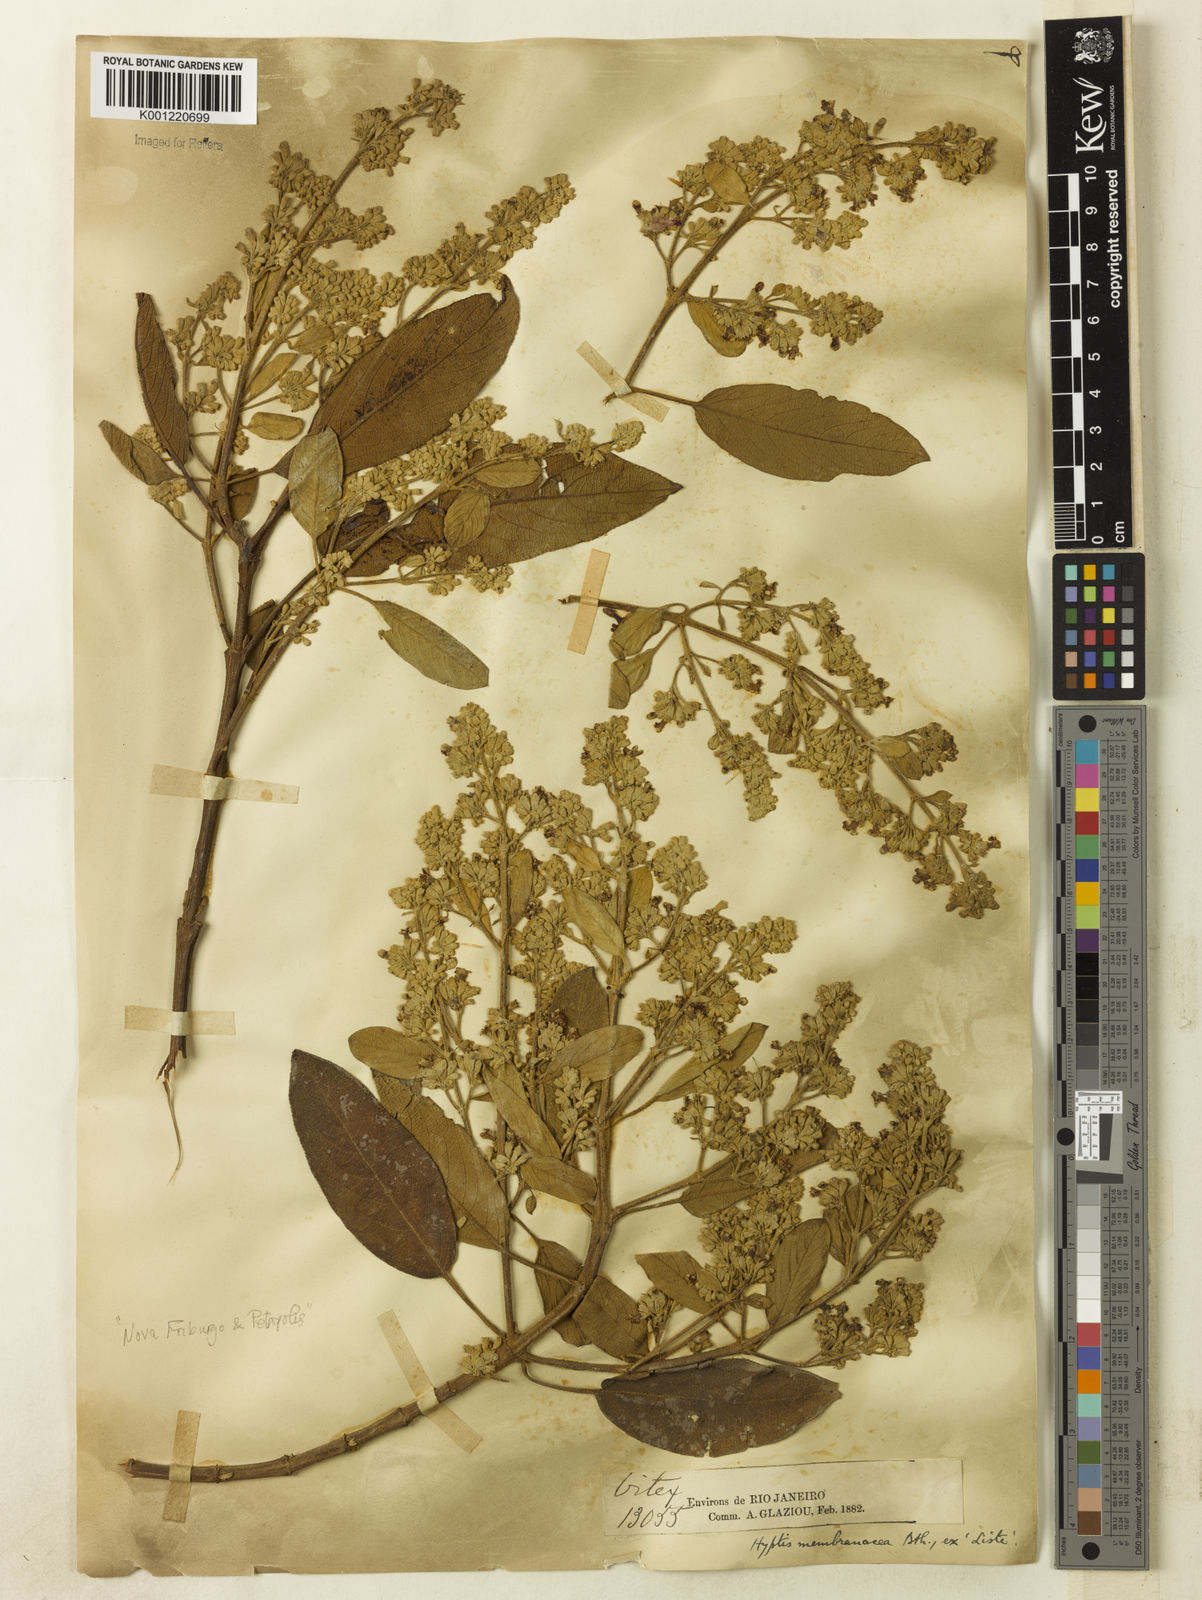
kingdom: Plantae
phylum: Tracheophyta
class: Magnoliopsida
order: Lamiales
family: Lamiaceae
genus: Hyptidendron
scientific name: Hyptidendron asperrimum
